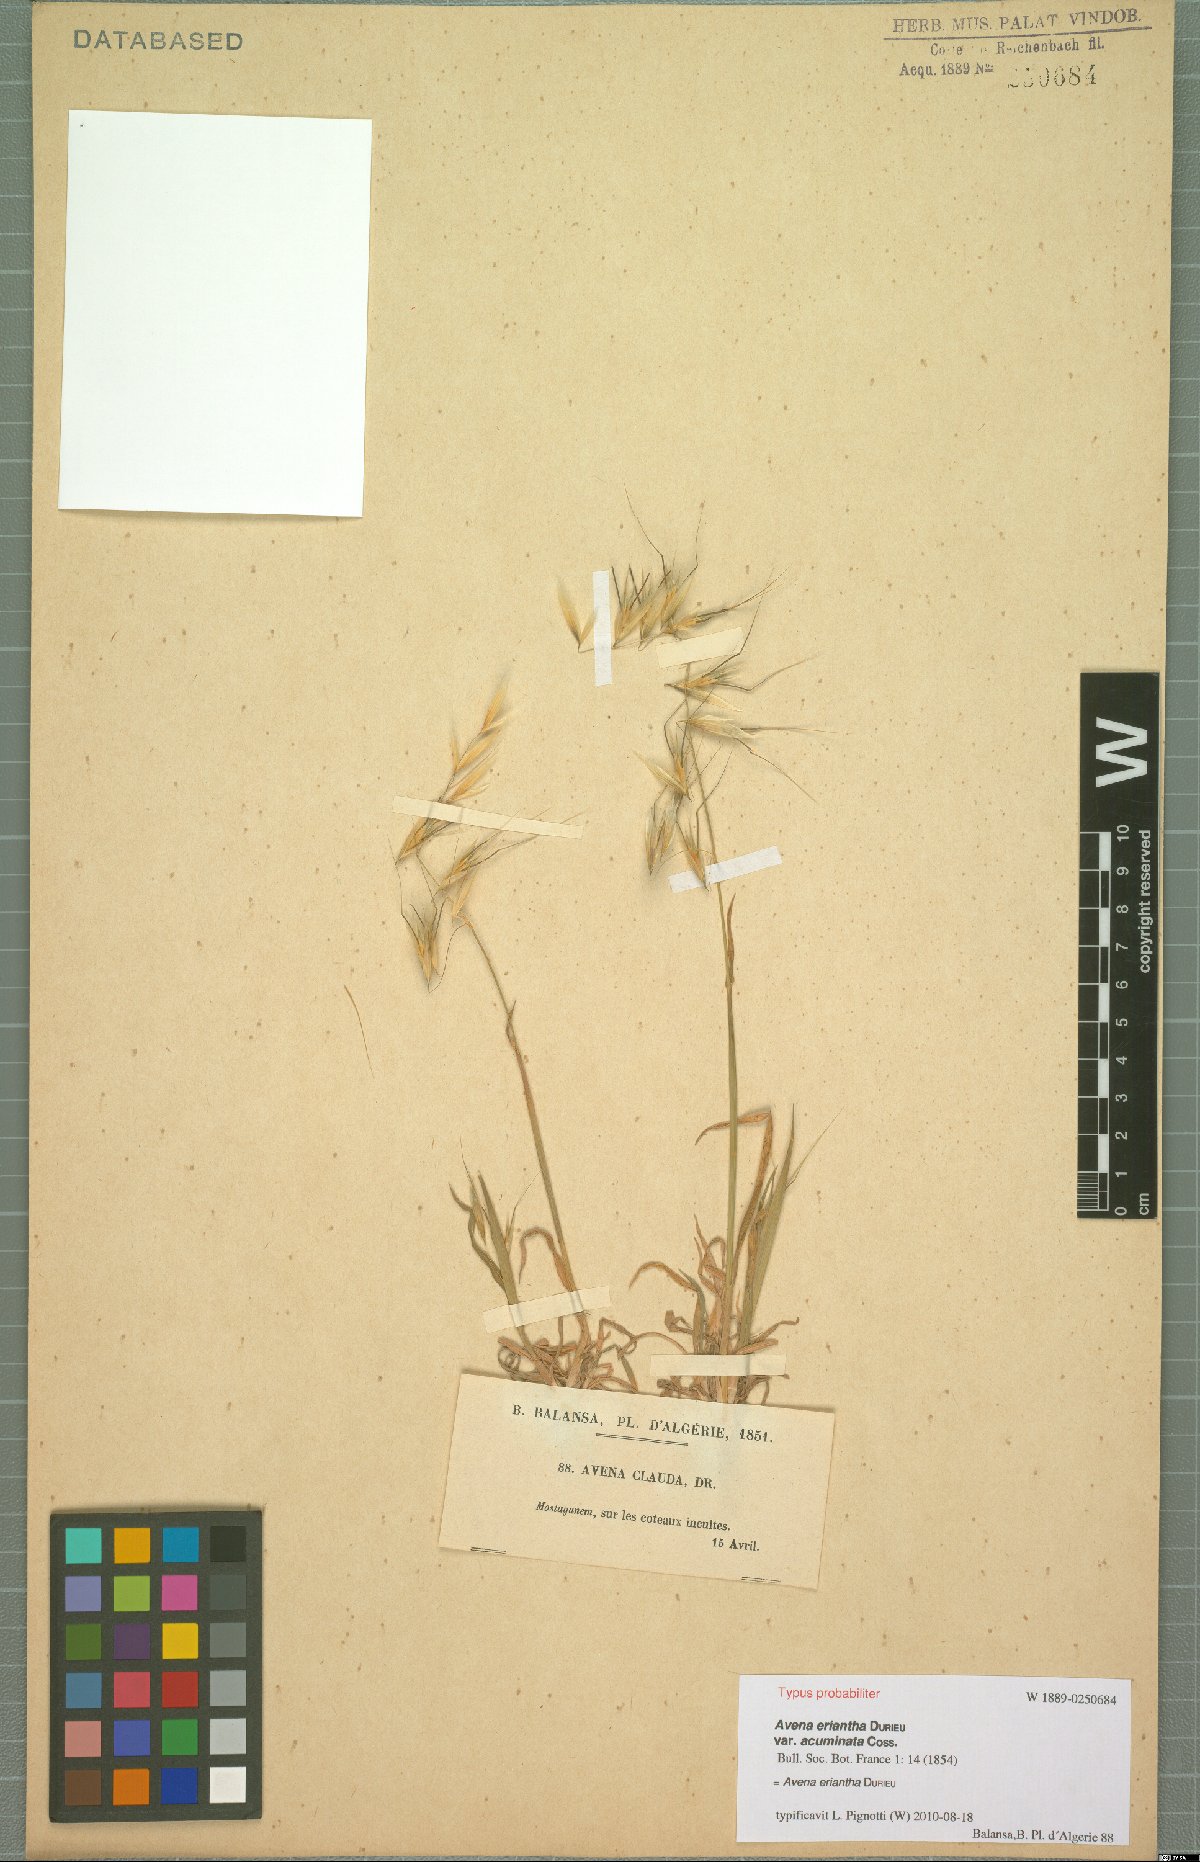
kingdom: Plantae
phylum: Tracheophyta
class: Liliopsida
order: Poales
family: Poaceae
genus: Avena
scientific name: Avena eriantha
